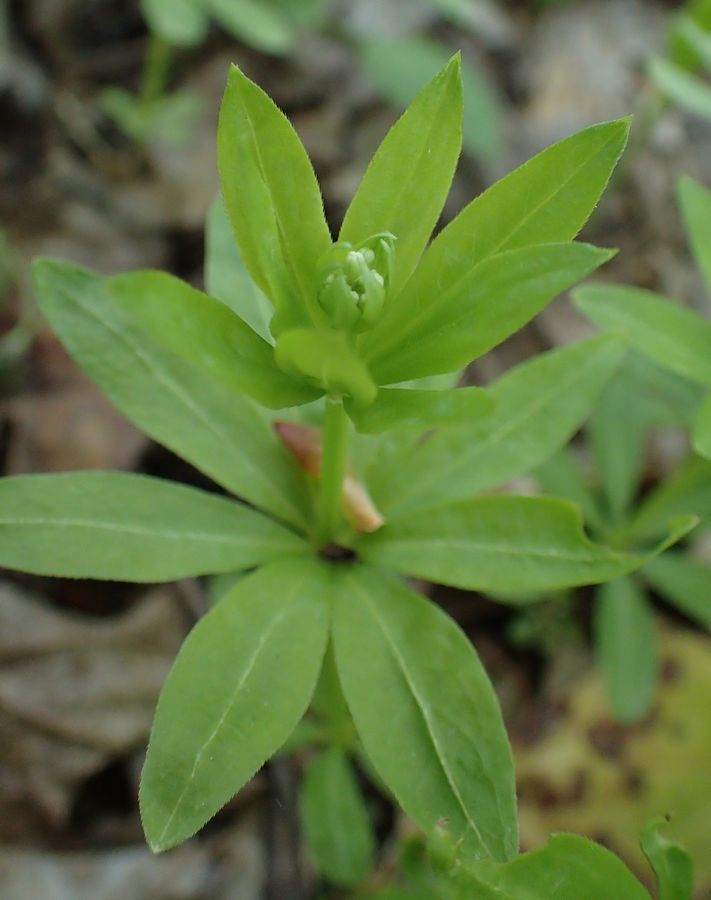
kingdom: Plantae
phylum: Tracheophyta
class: Magnoliopsida
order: Gentianales
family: Rubiaceae
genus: Galium
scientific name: Galium odoratum
